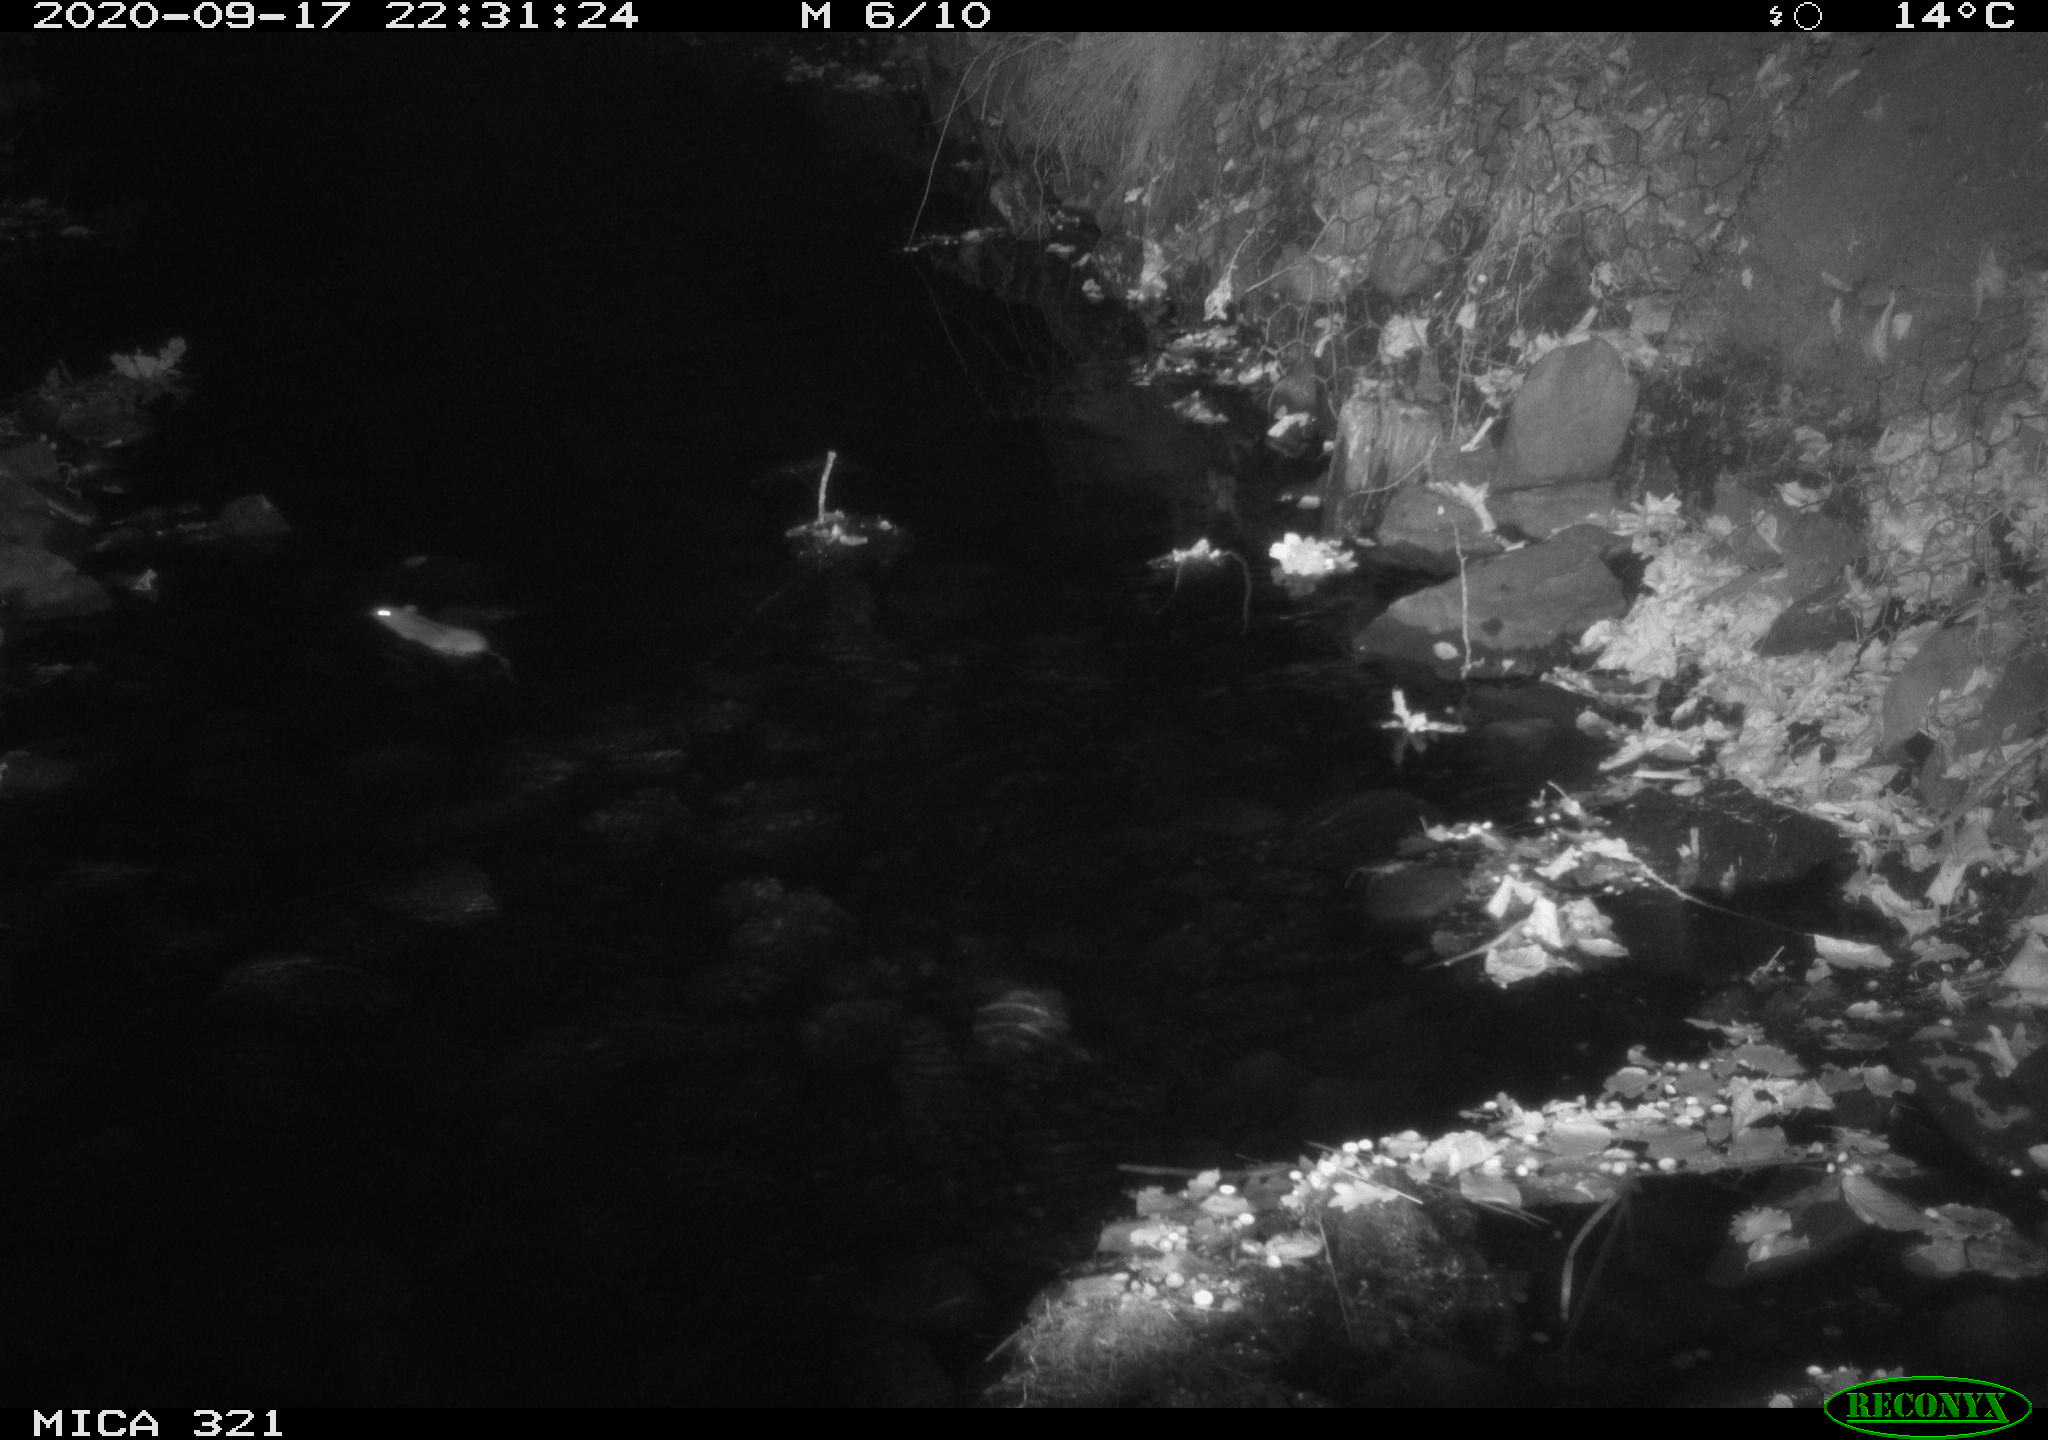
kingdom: Animalia
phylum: Chordata
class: Mammalia
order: Rodentia
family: Muridae
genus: Rattus
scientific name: Rattus norvegicus
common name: Brown rat
